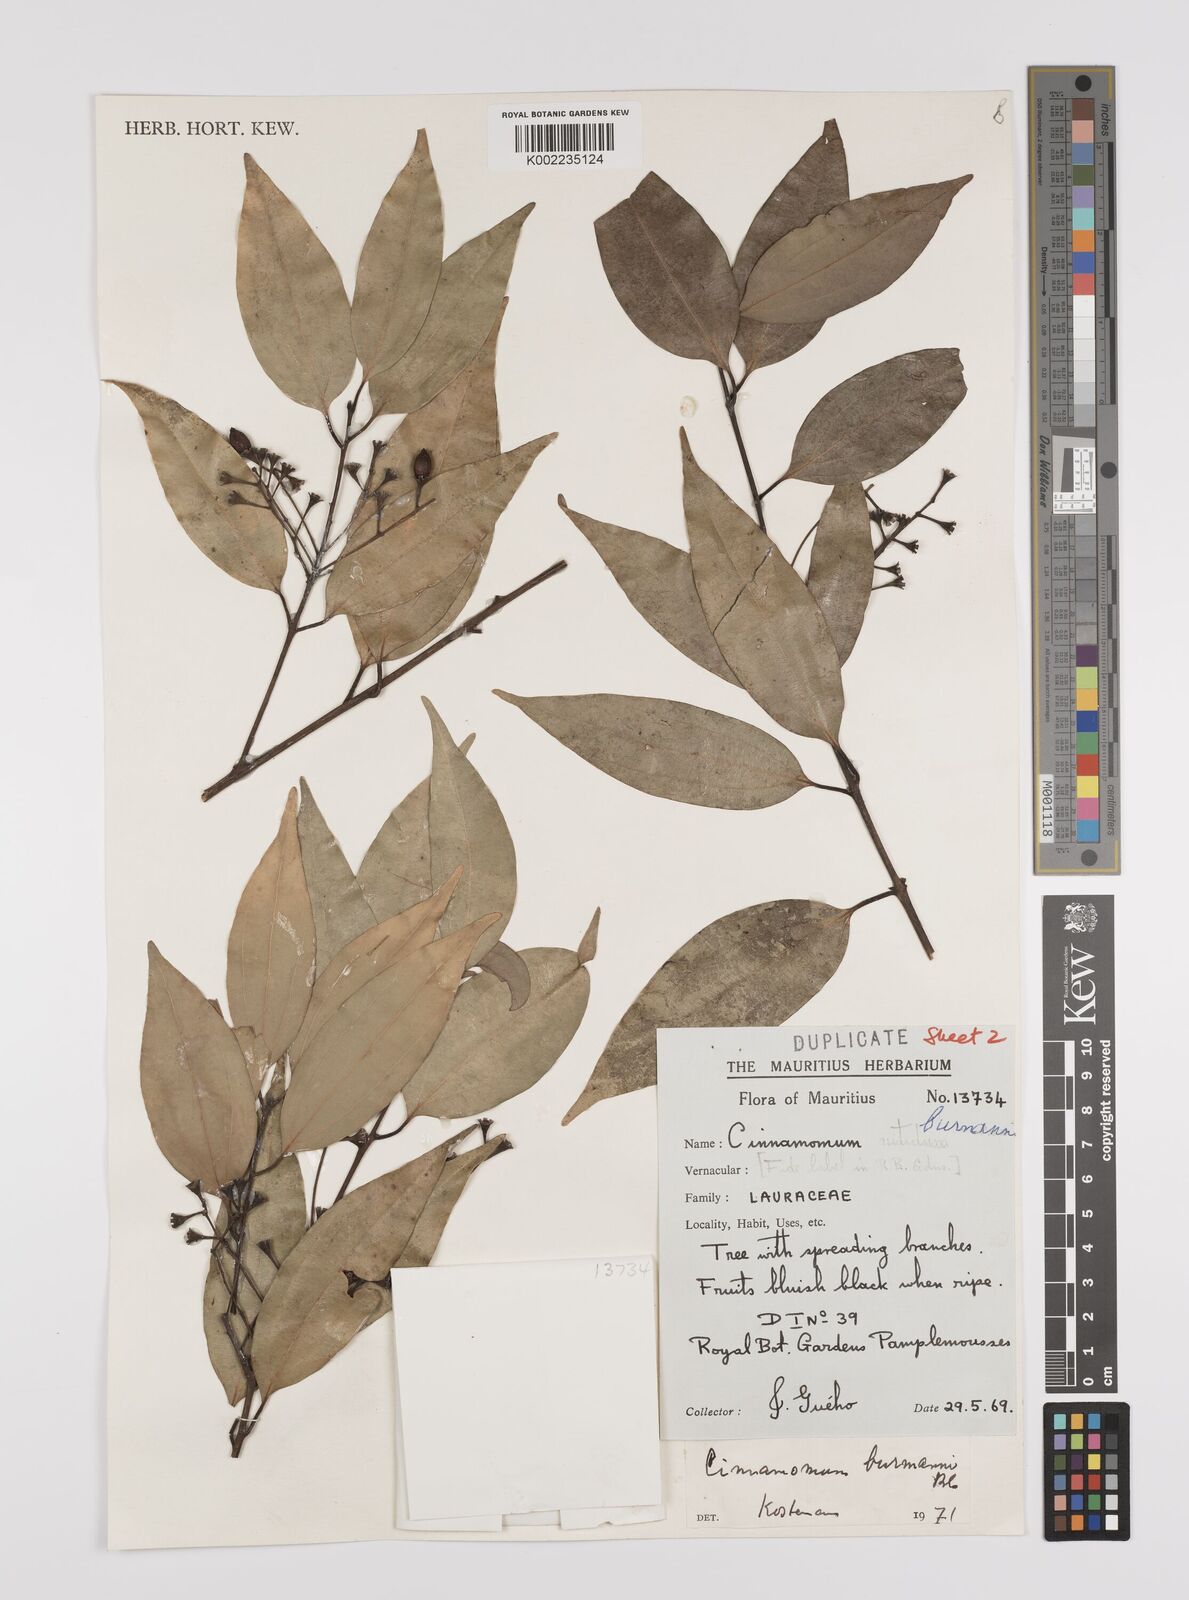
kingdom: Plantae
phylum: Tracheophyta
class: Magnoliopsida
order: Laurales
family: Lauraceae
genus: Cinnamomum
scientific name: Cinnamomum burmanni
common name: Padang cassia
